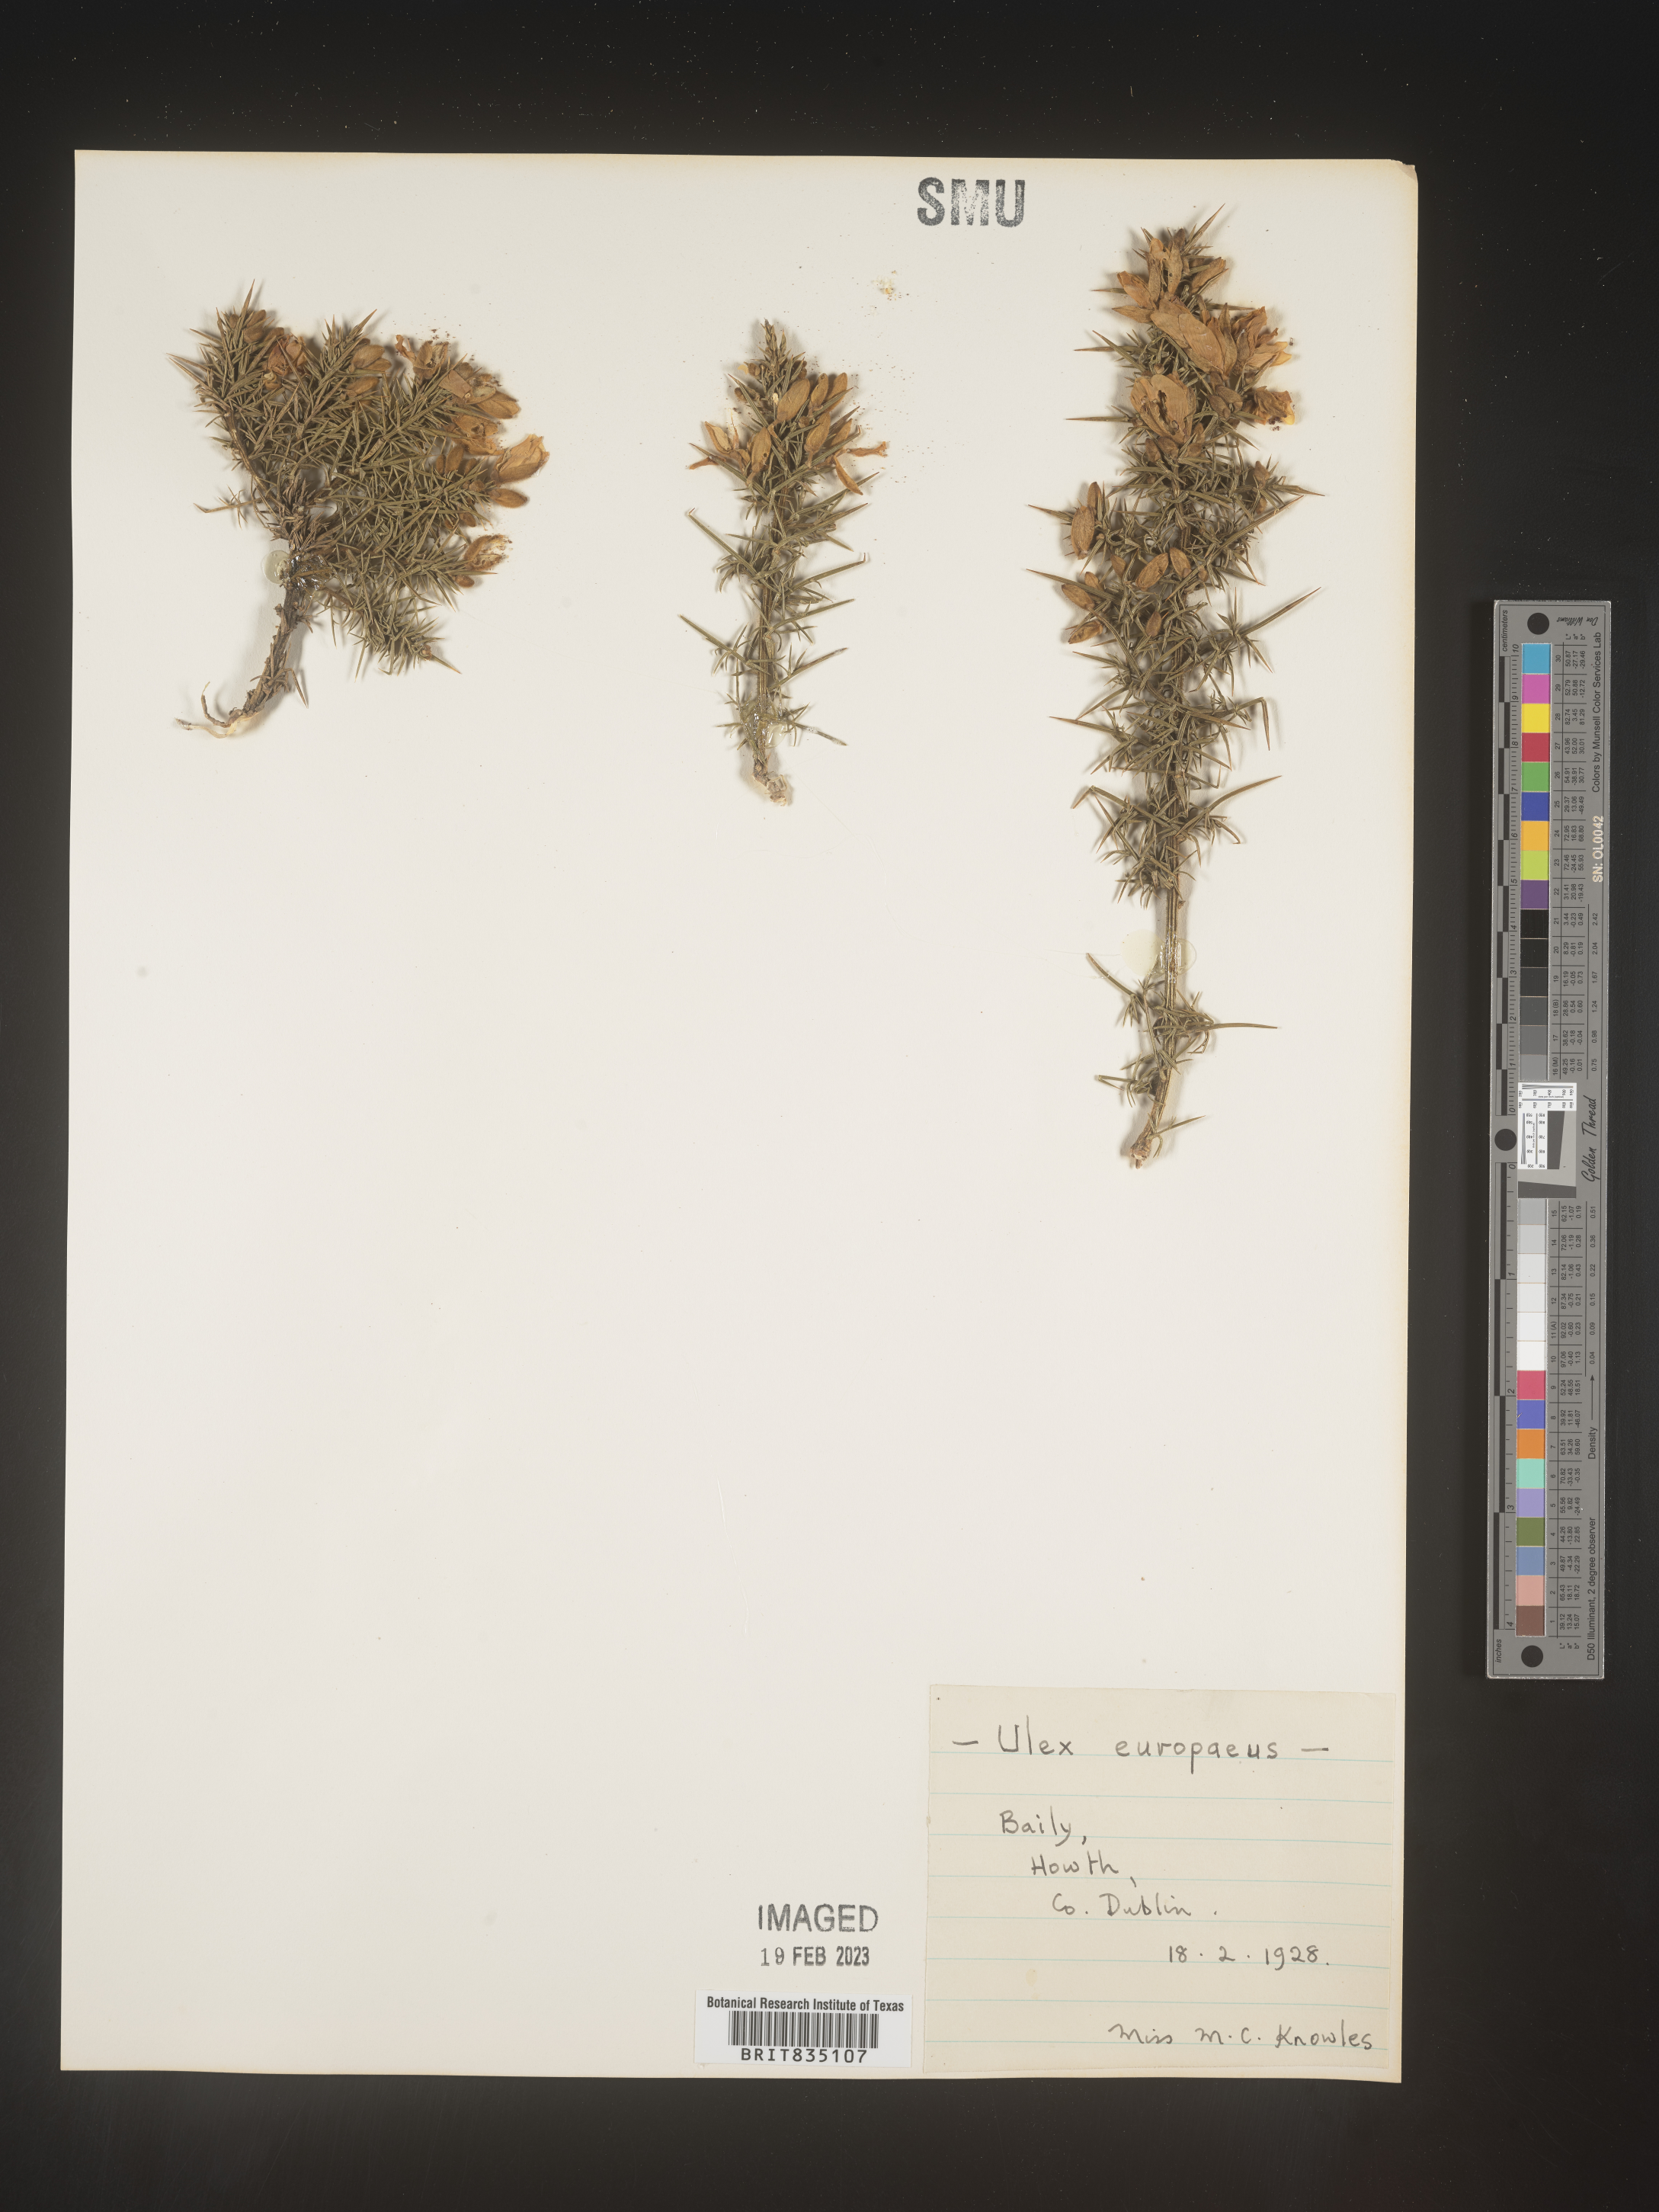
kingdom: Plantae
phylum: Tracheophyta
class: Magnoliopsida
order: Fabales
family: Fabaceae
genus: Ulex
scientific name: Ulex
